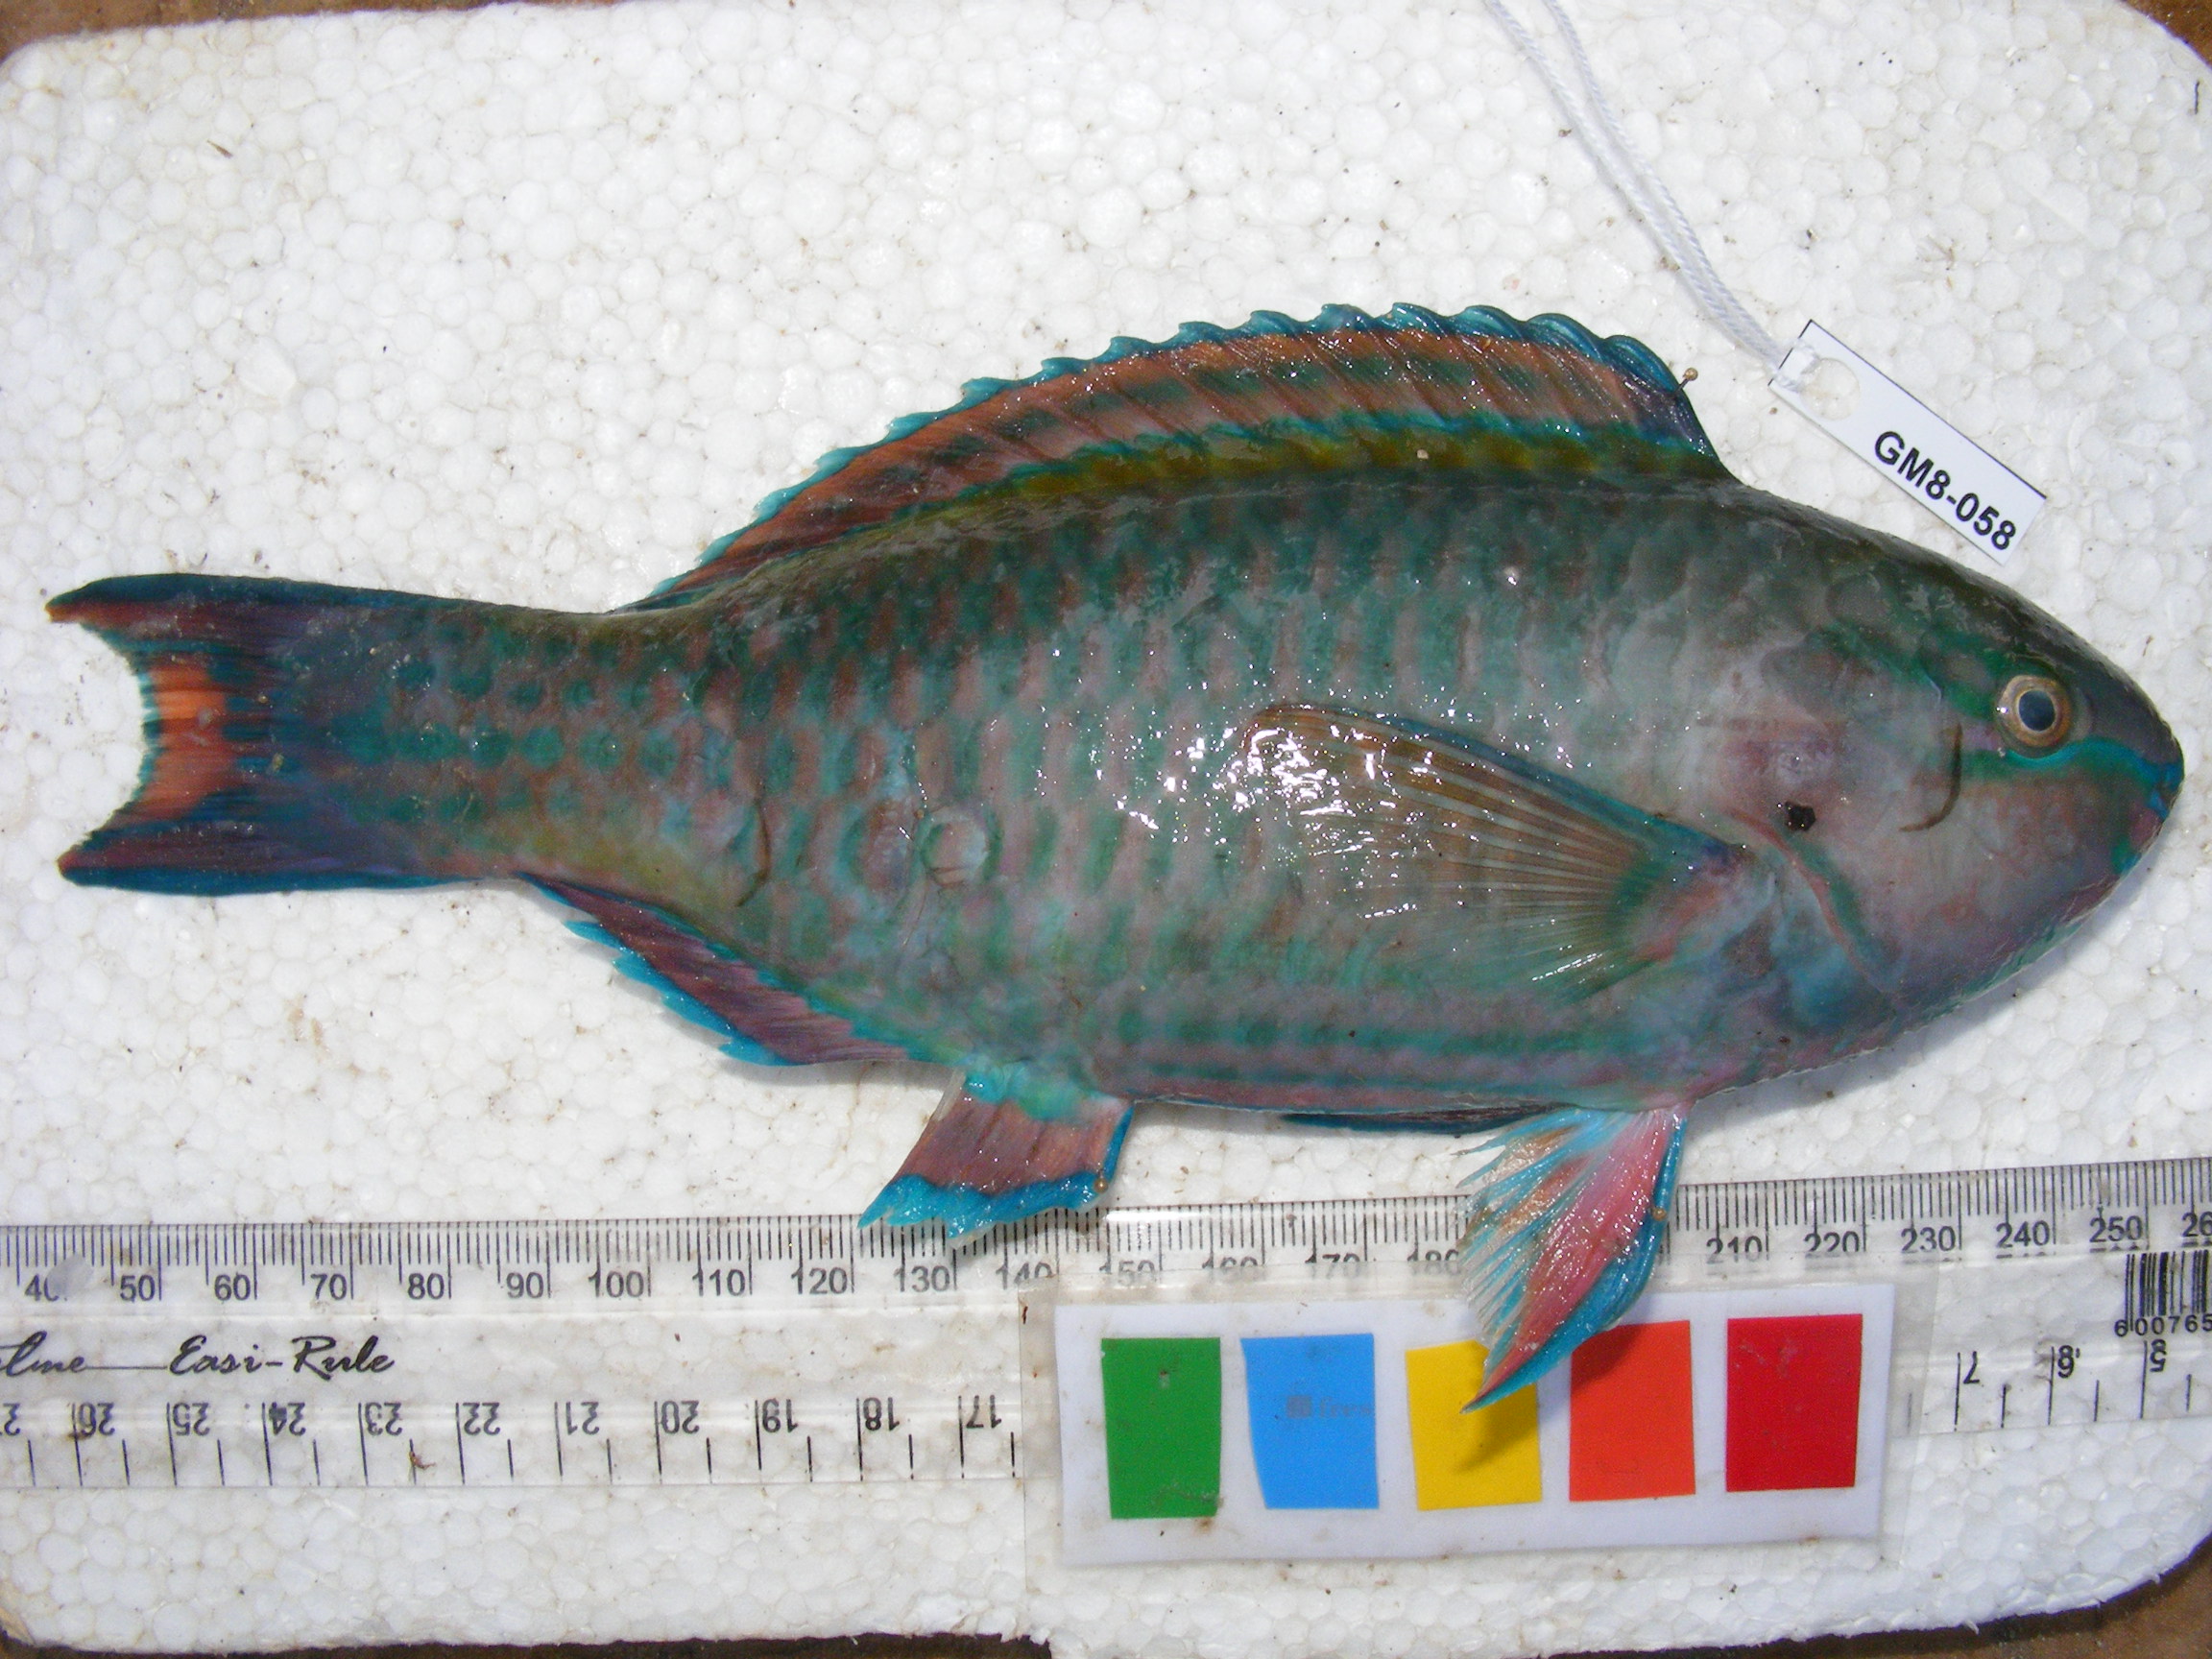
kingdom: Animalia
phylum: Chordata
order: Perciformes
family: Scaridae
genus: Scarus
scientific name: Scarus russelii
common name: Eclipse parrotfish
